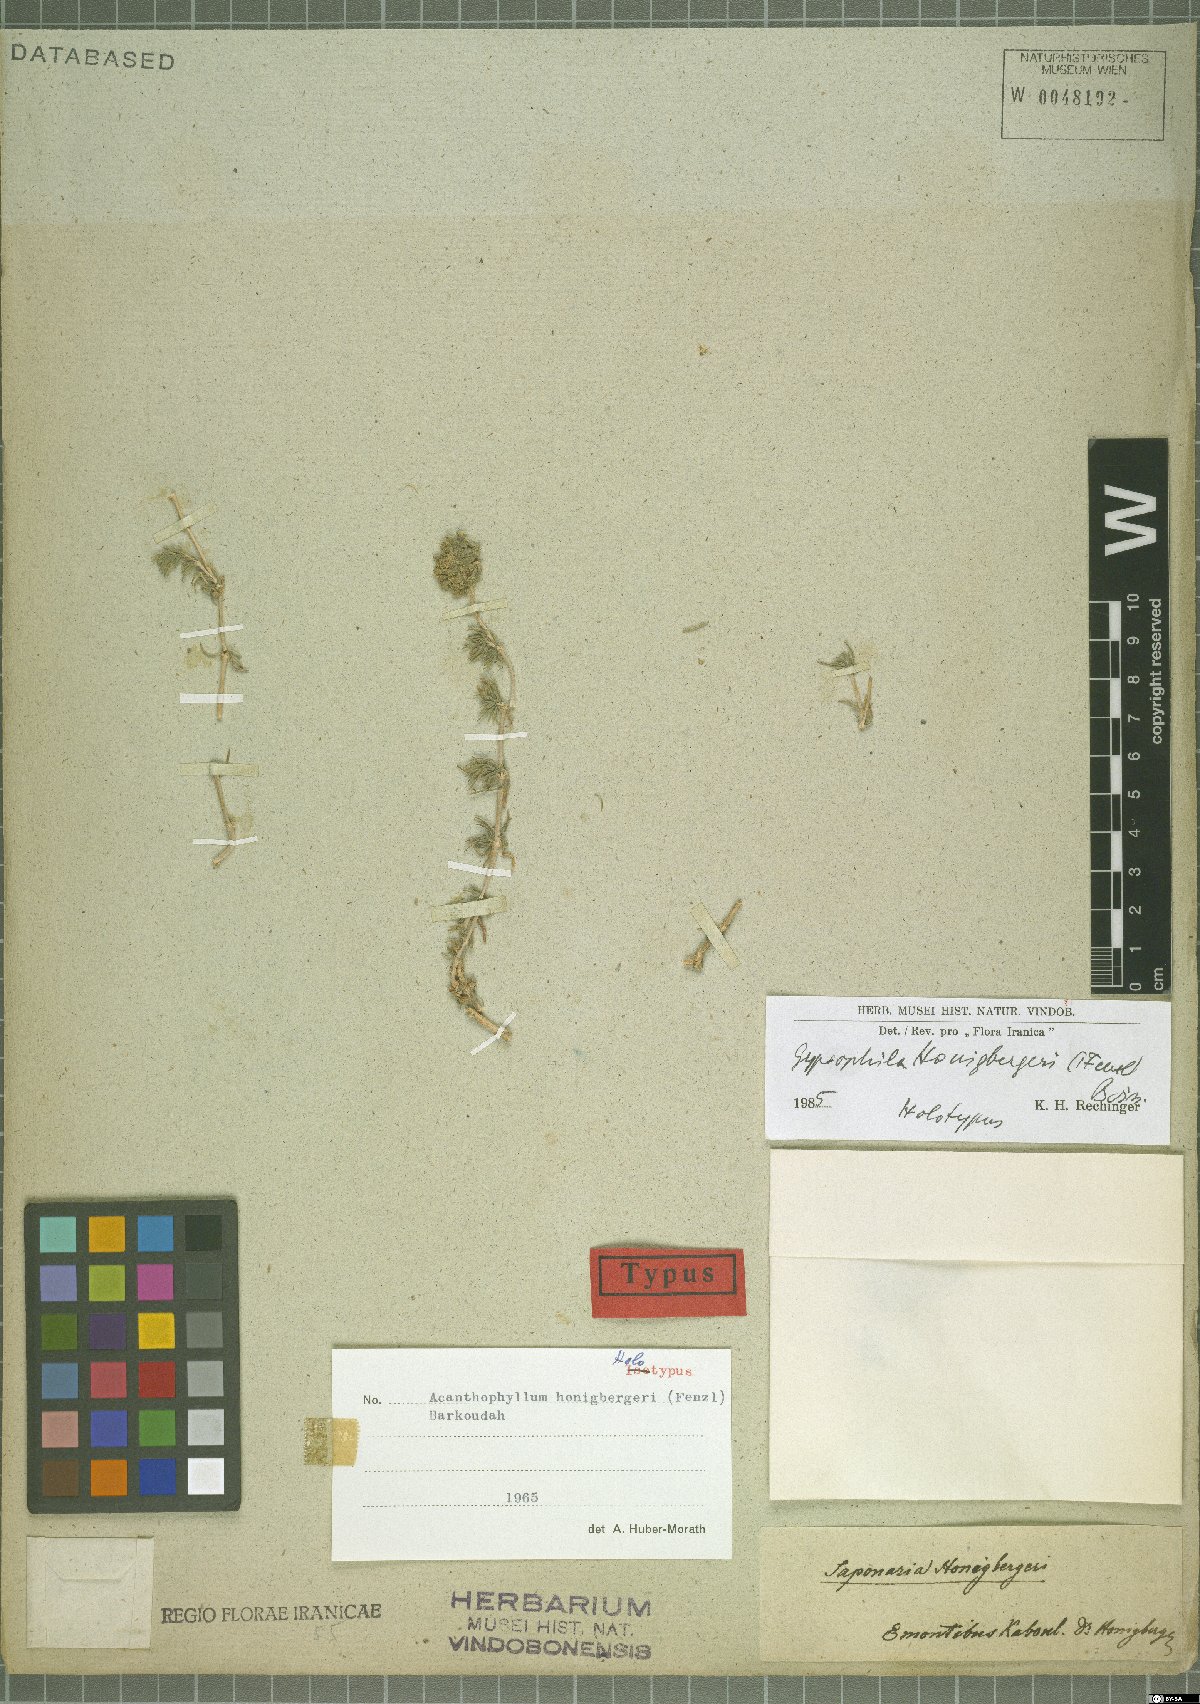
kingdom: Plantae
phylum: Tracheophyta
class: Magnoliopsida
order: Caryophyllales
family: Caryophyllaceae
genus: Acanthophyllum
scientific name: Acanthophyllum honigbergeri
